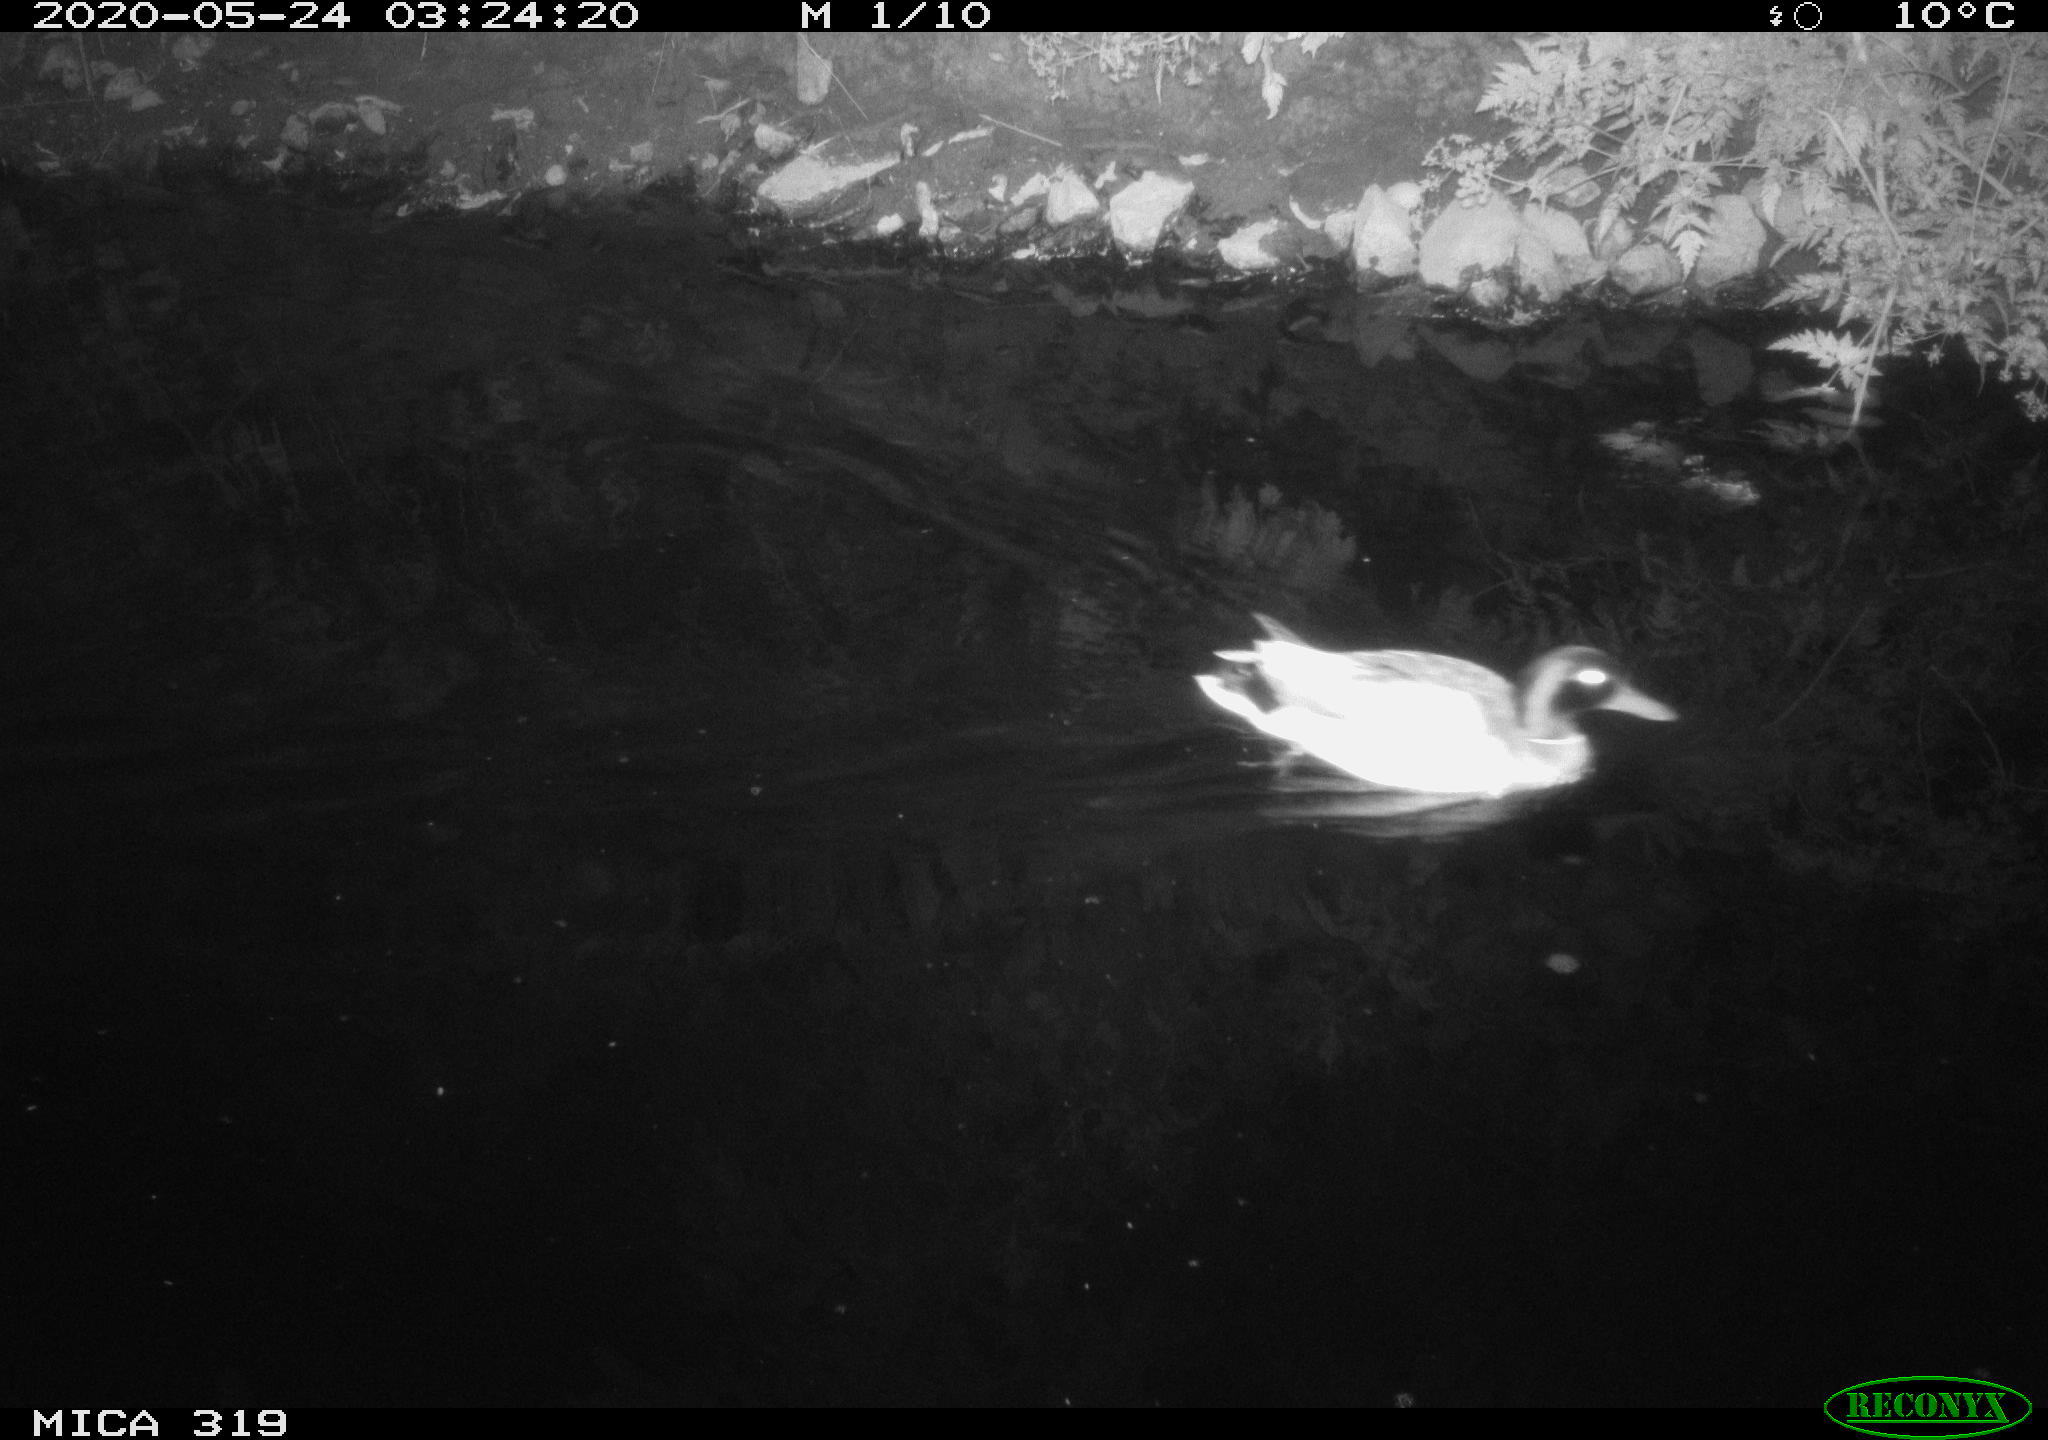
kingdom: Animalia
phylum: Chordata
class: Aves
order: Anseriformes
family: Anatidae
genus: Anas
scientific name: Anas platyrhynchos
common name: Mallard
